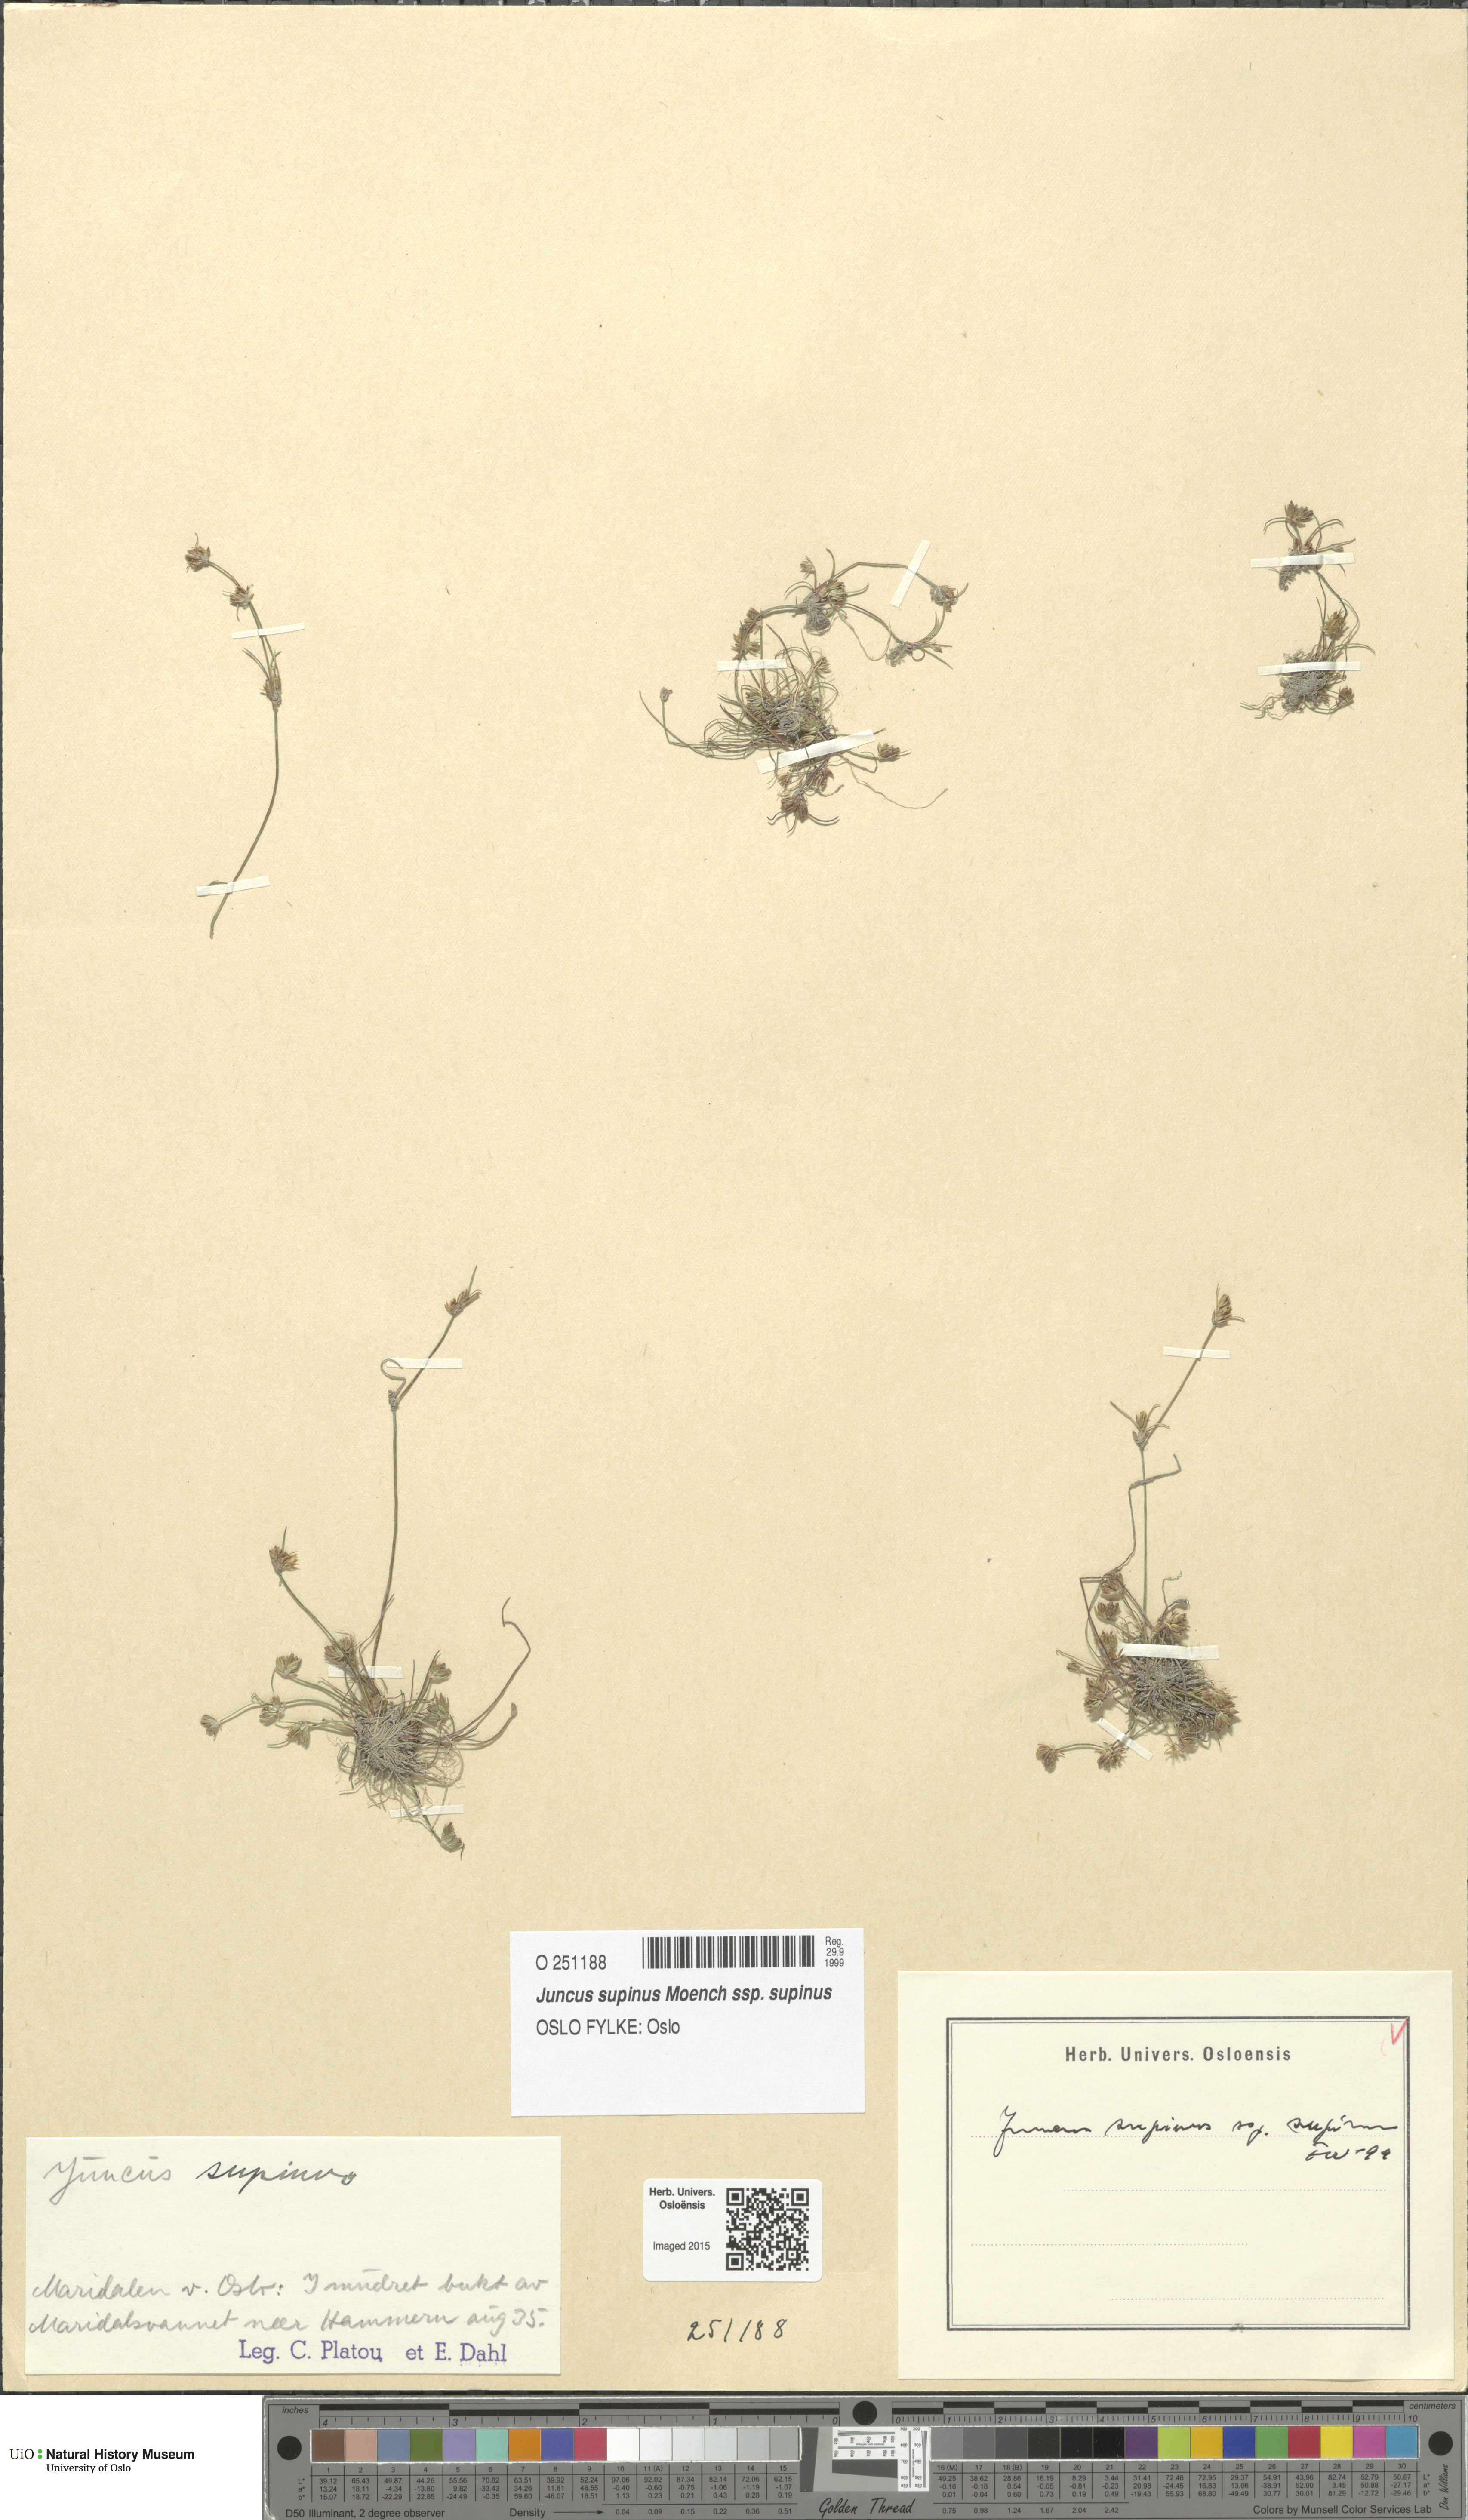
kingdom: Plantae
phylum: Tracheophyta
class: Liliopsida
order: Poales
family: Juncaceae
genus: Juncus
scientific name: Juncus bulbosus
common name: Bulbous rush
